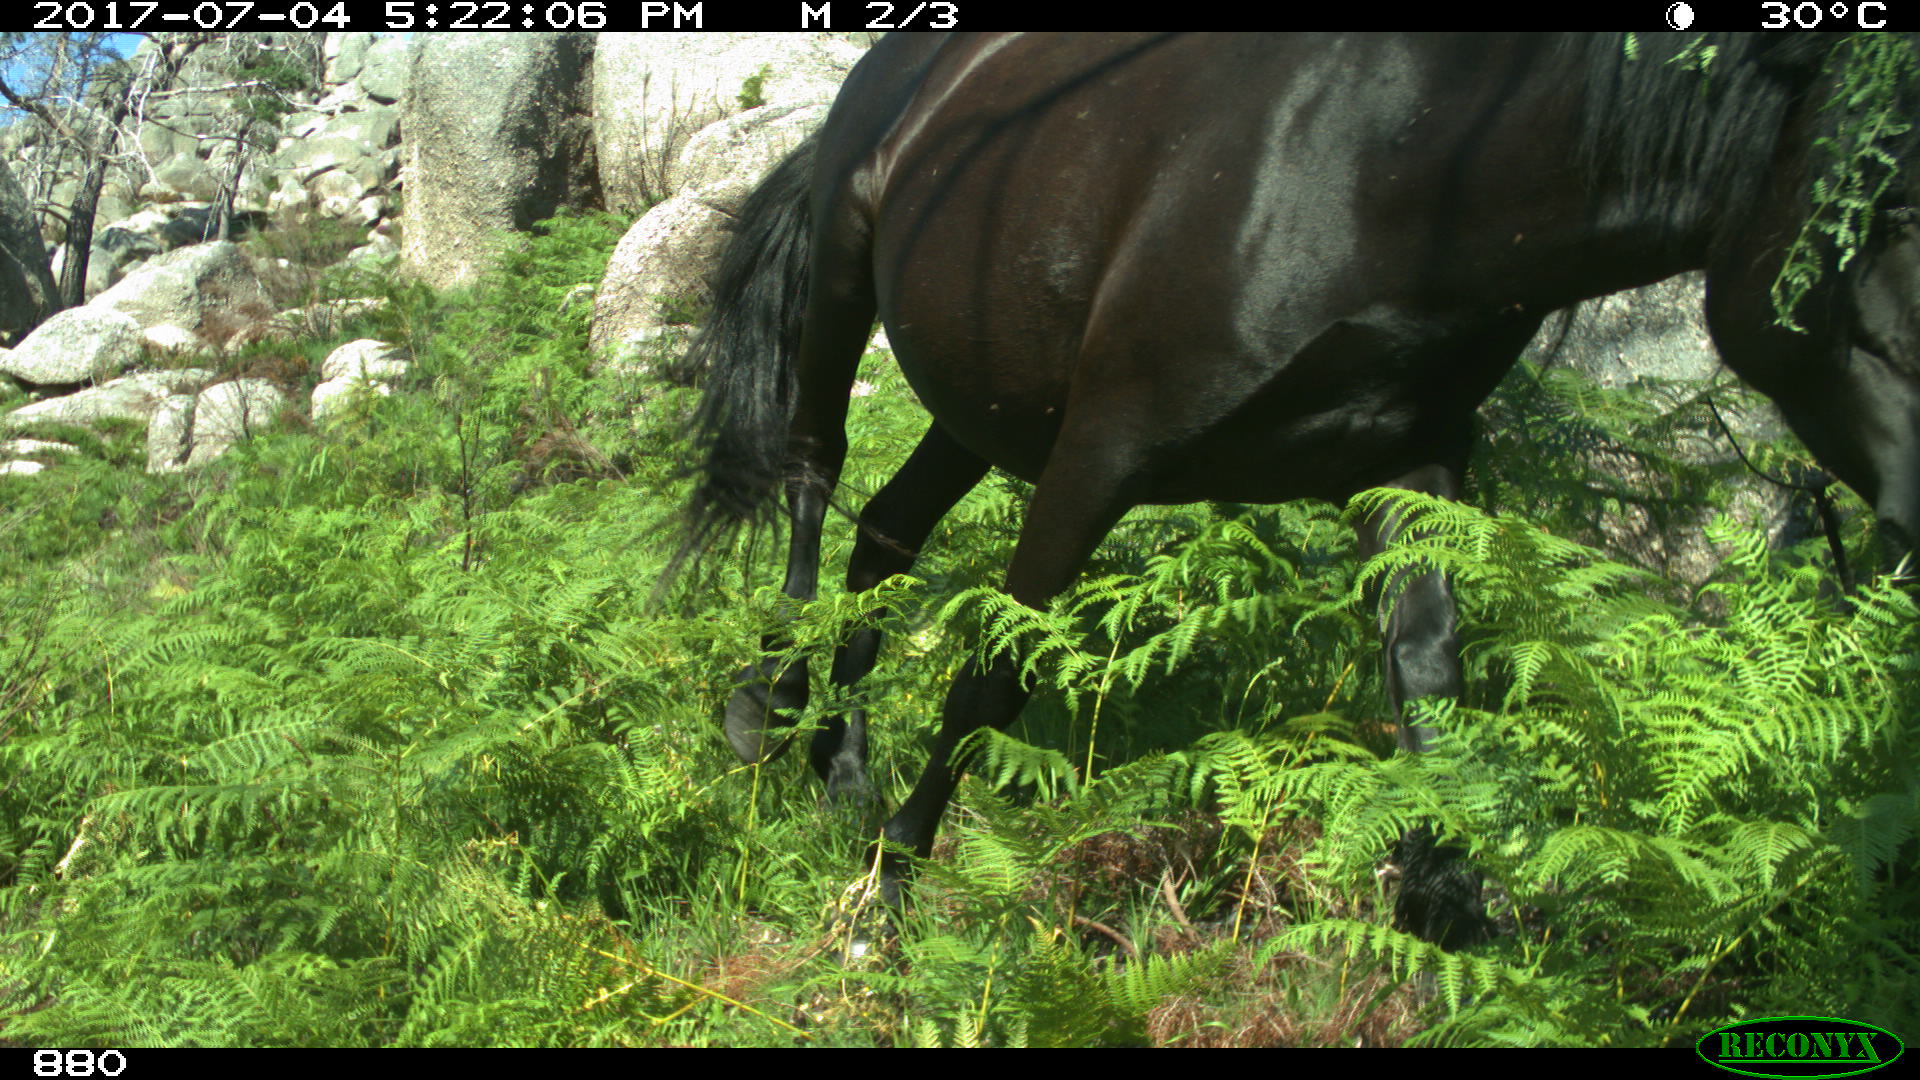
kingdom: Animalia
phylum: Chordata
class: Mammalia
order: Perissodactyla
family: Equidae
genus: Equus
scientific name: Equus caballus
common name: Horse
